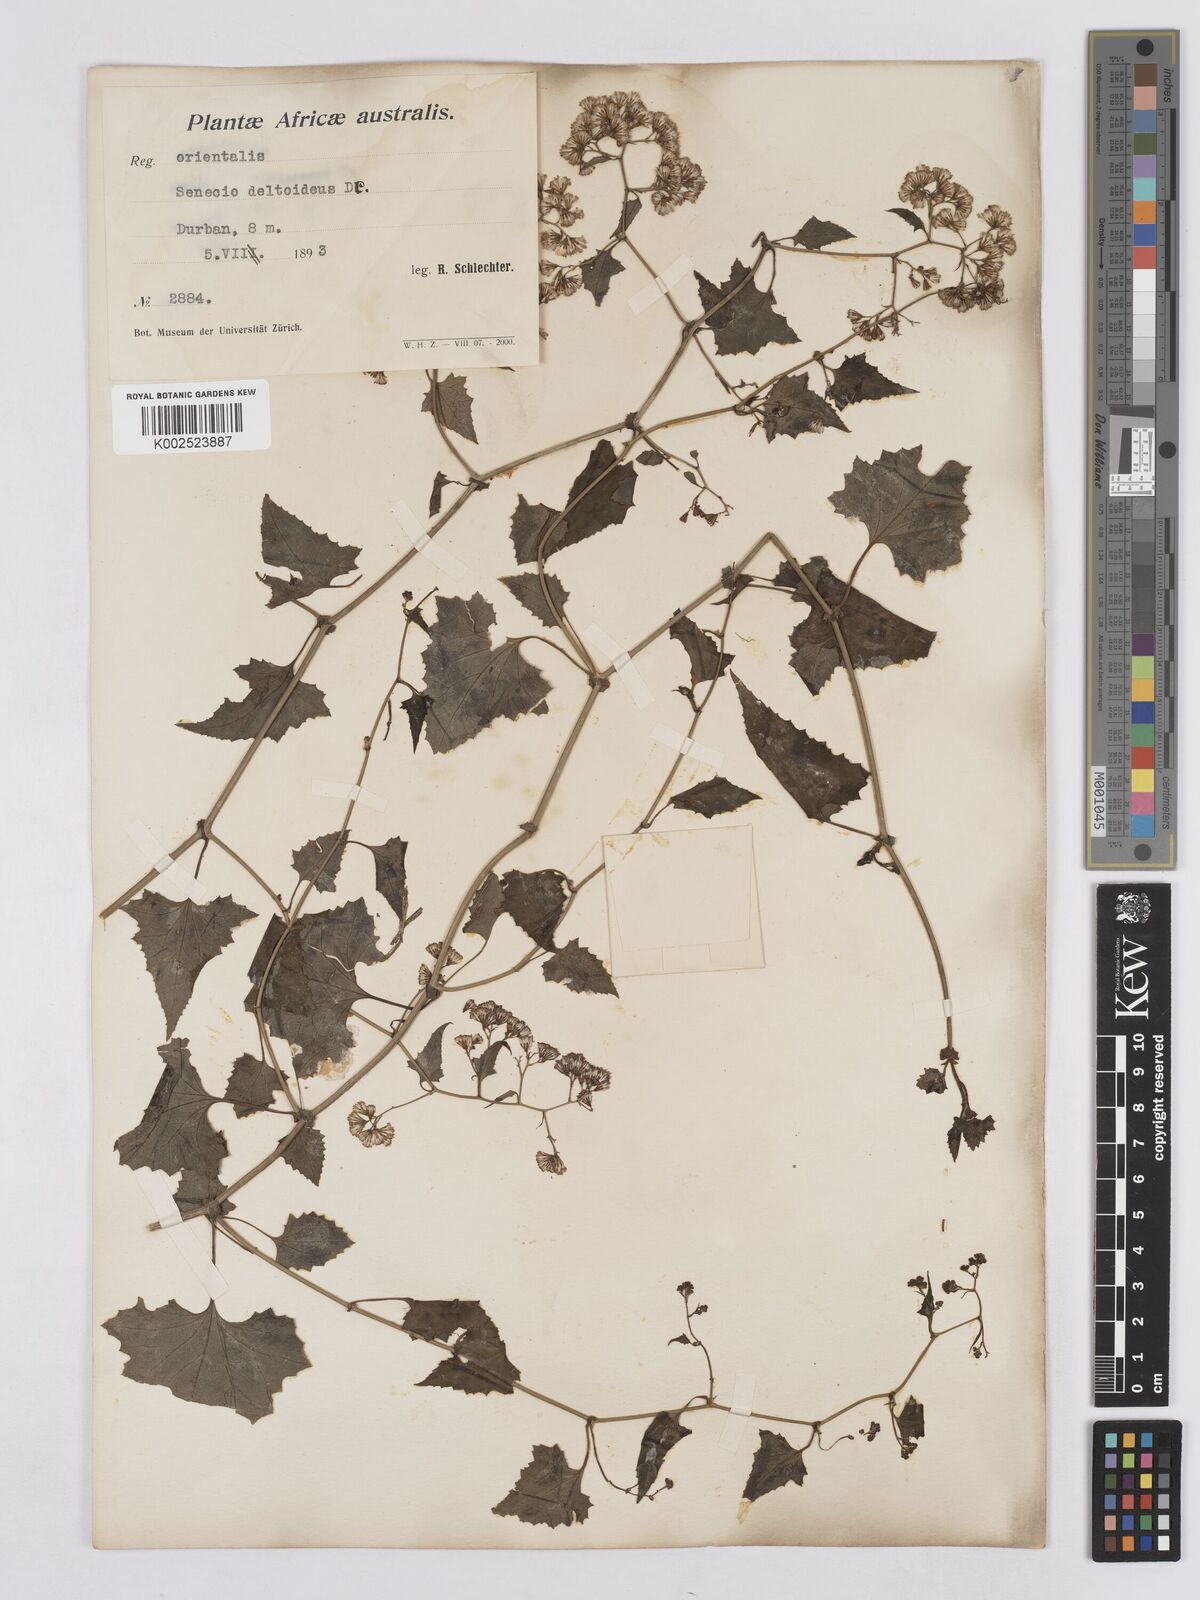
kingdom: Plantae
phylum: Tracheophyta
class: Magnoliopsida
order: Asterales
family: Asteraceae
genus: Senecio
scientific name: Senecio deltoideus
